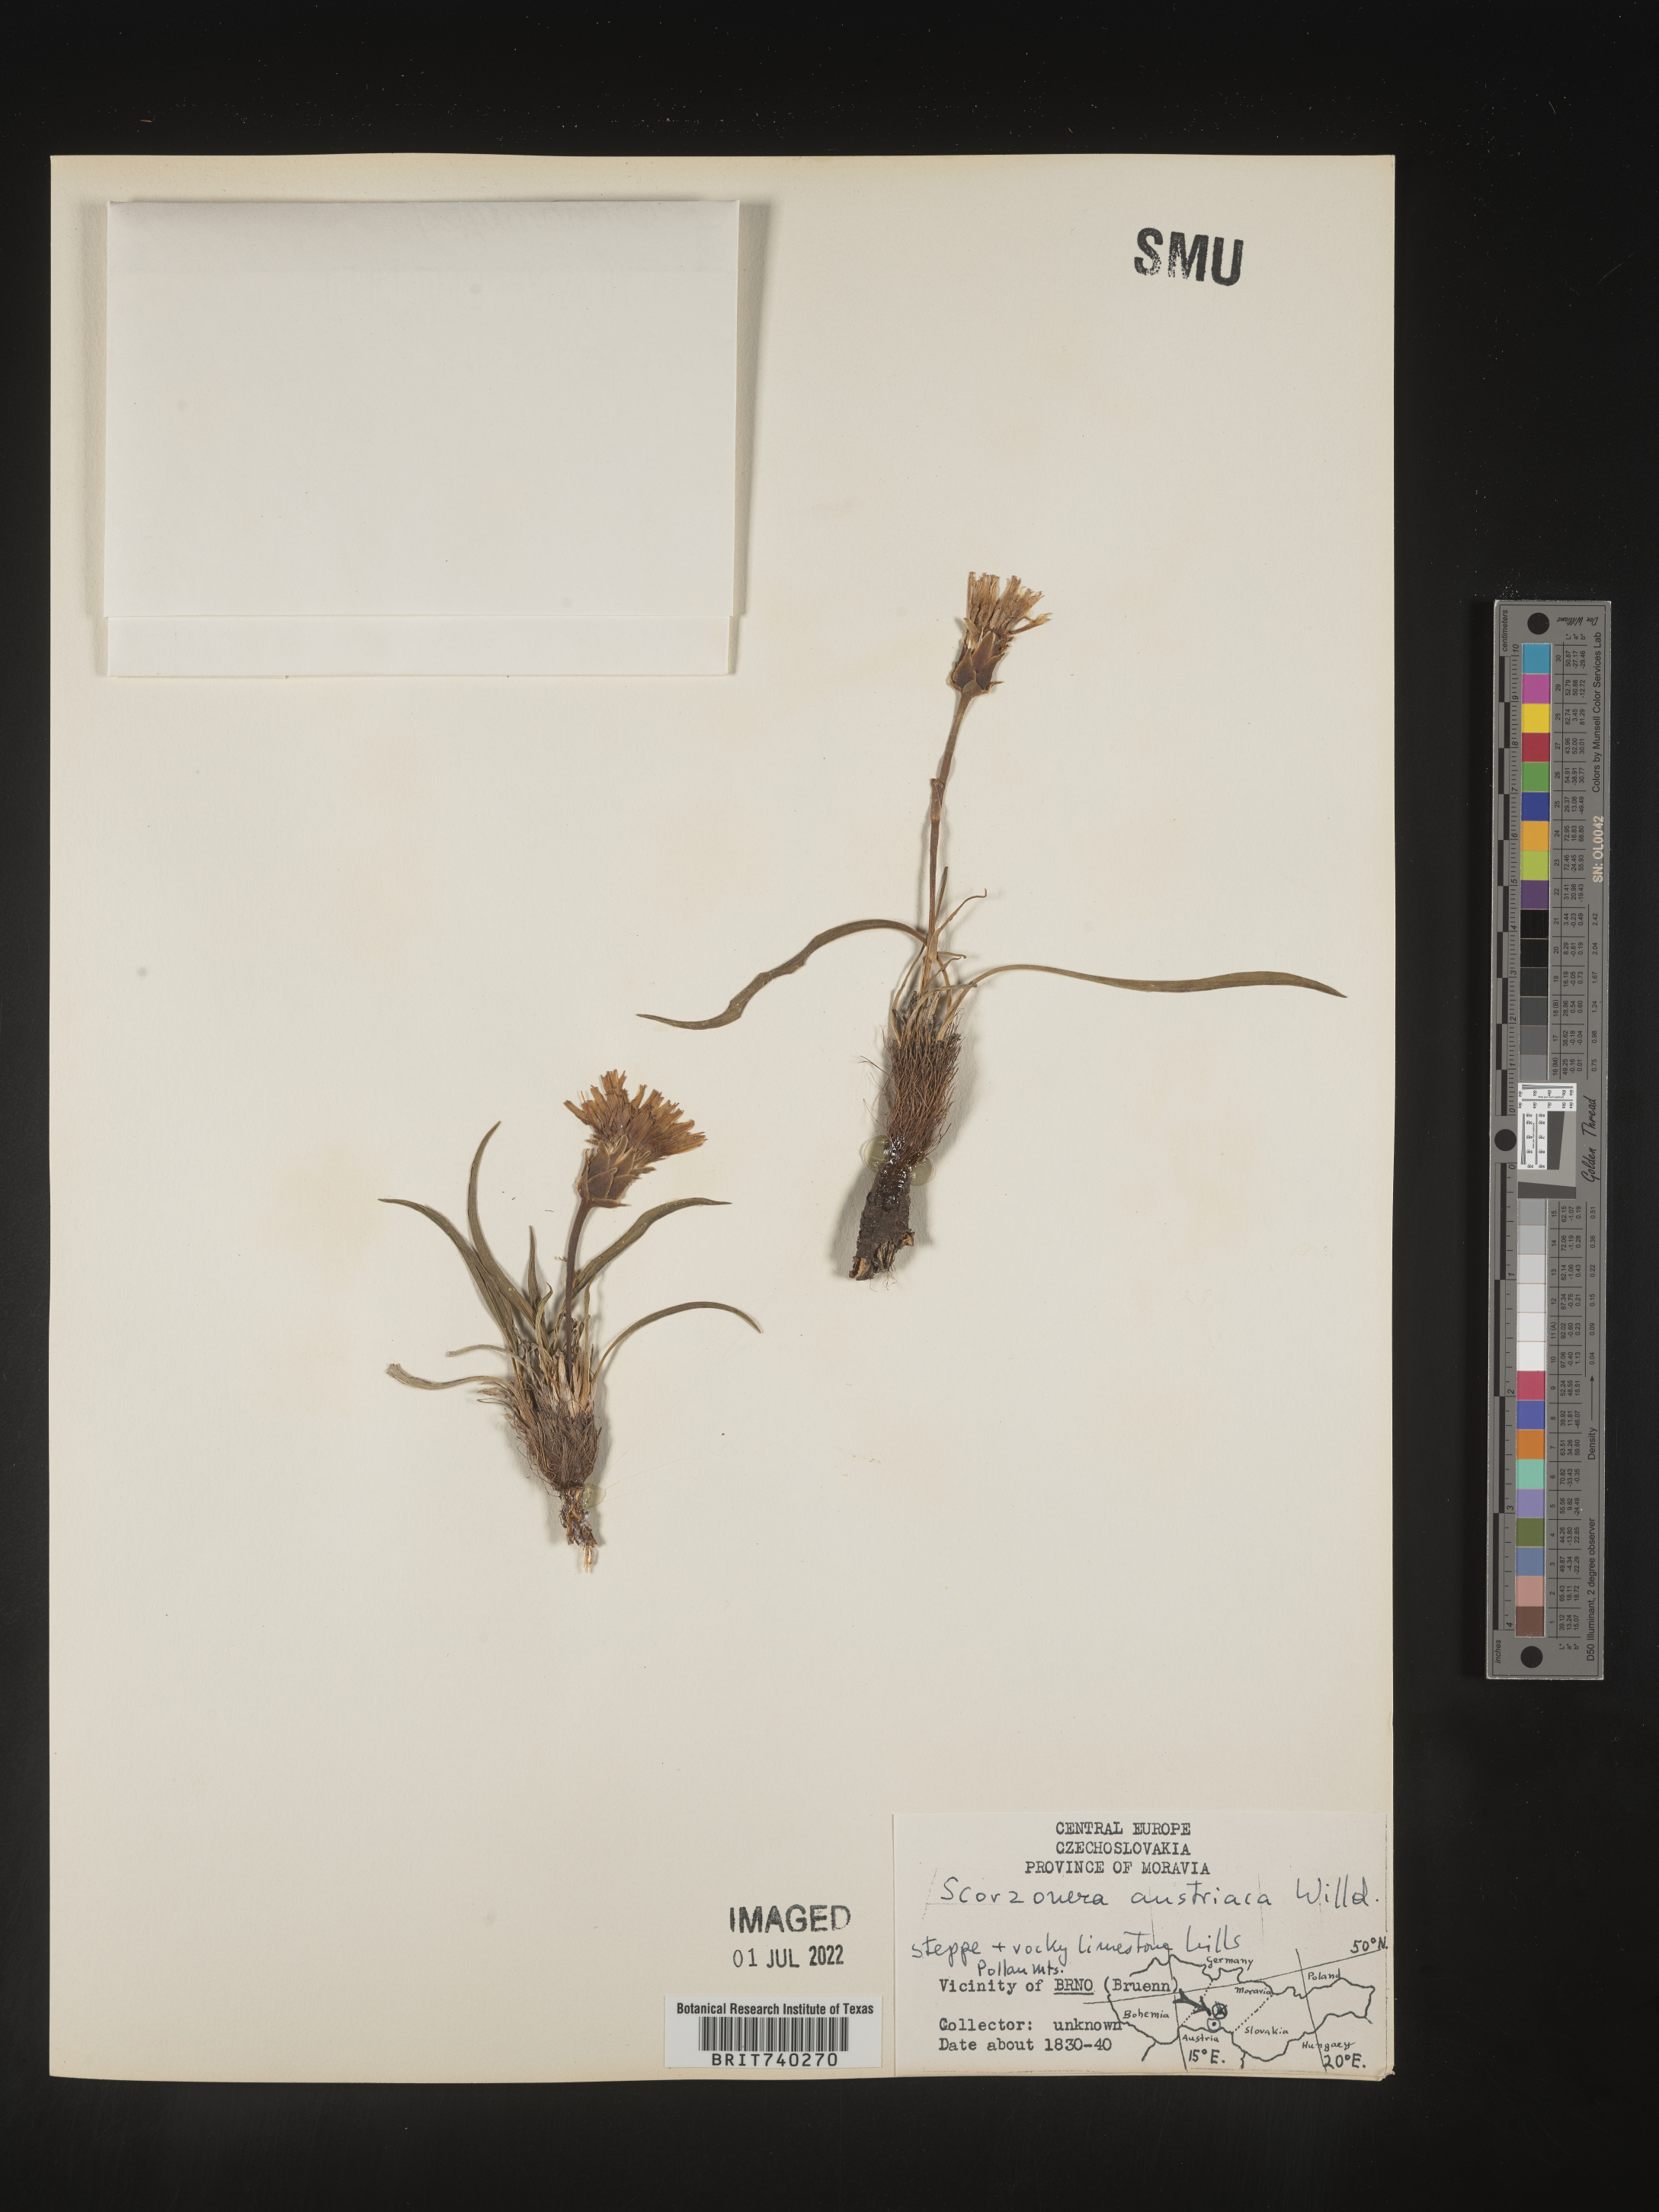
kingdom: Plantae
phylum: Tracheophyta
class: Magnoliopsida
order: Asterales
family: Asteraceae
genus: Scorzonera
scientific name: Scorzonera
